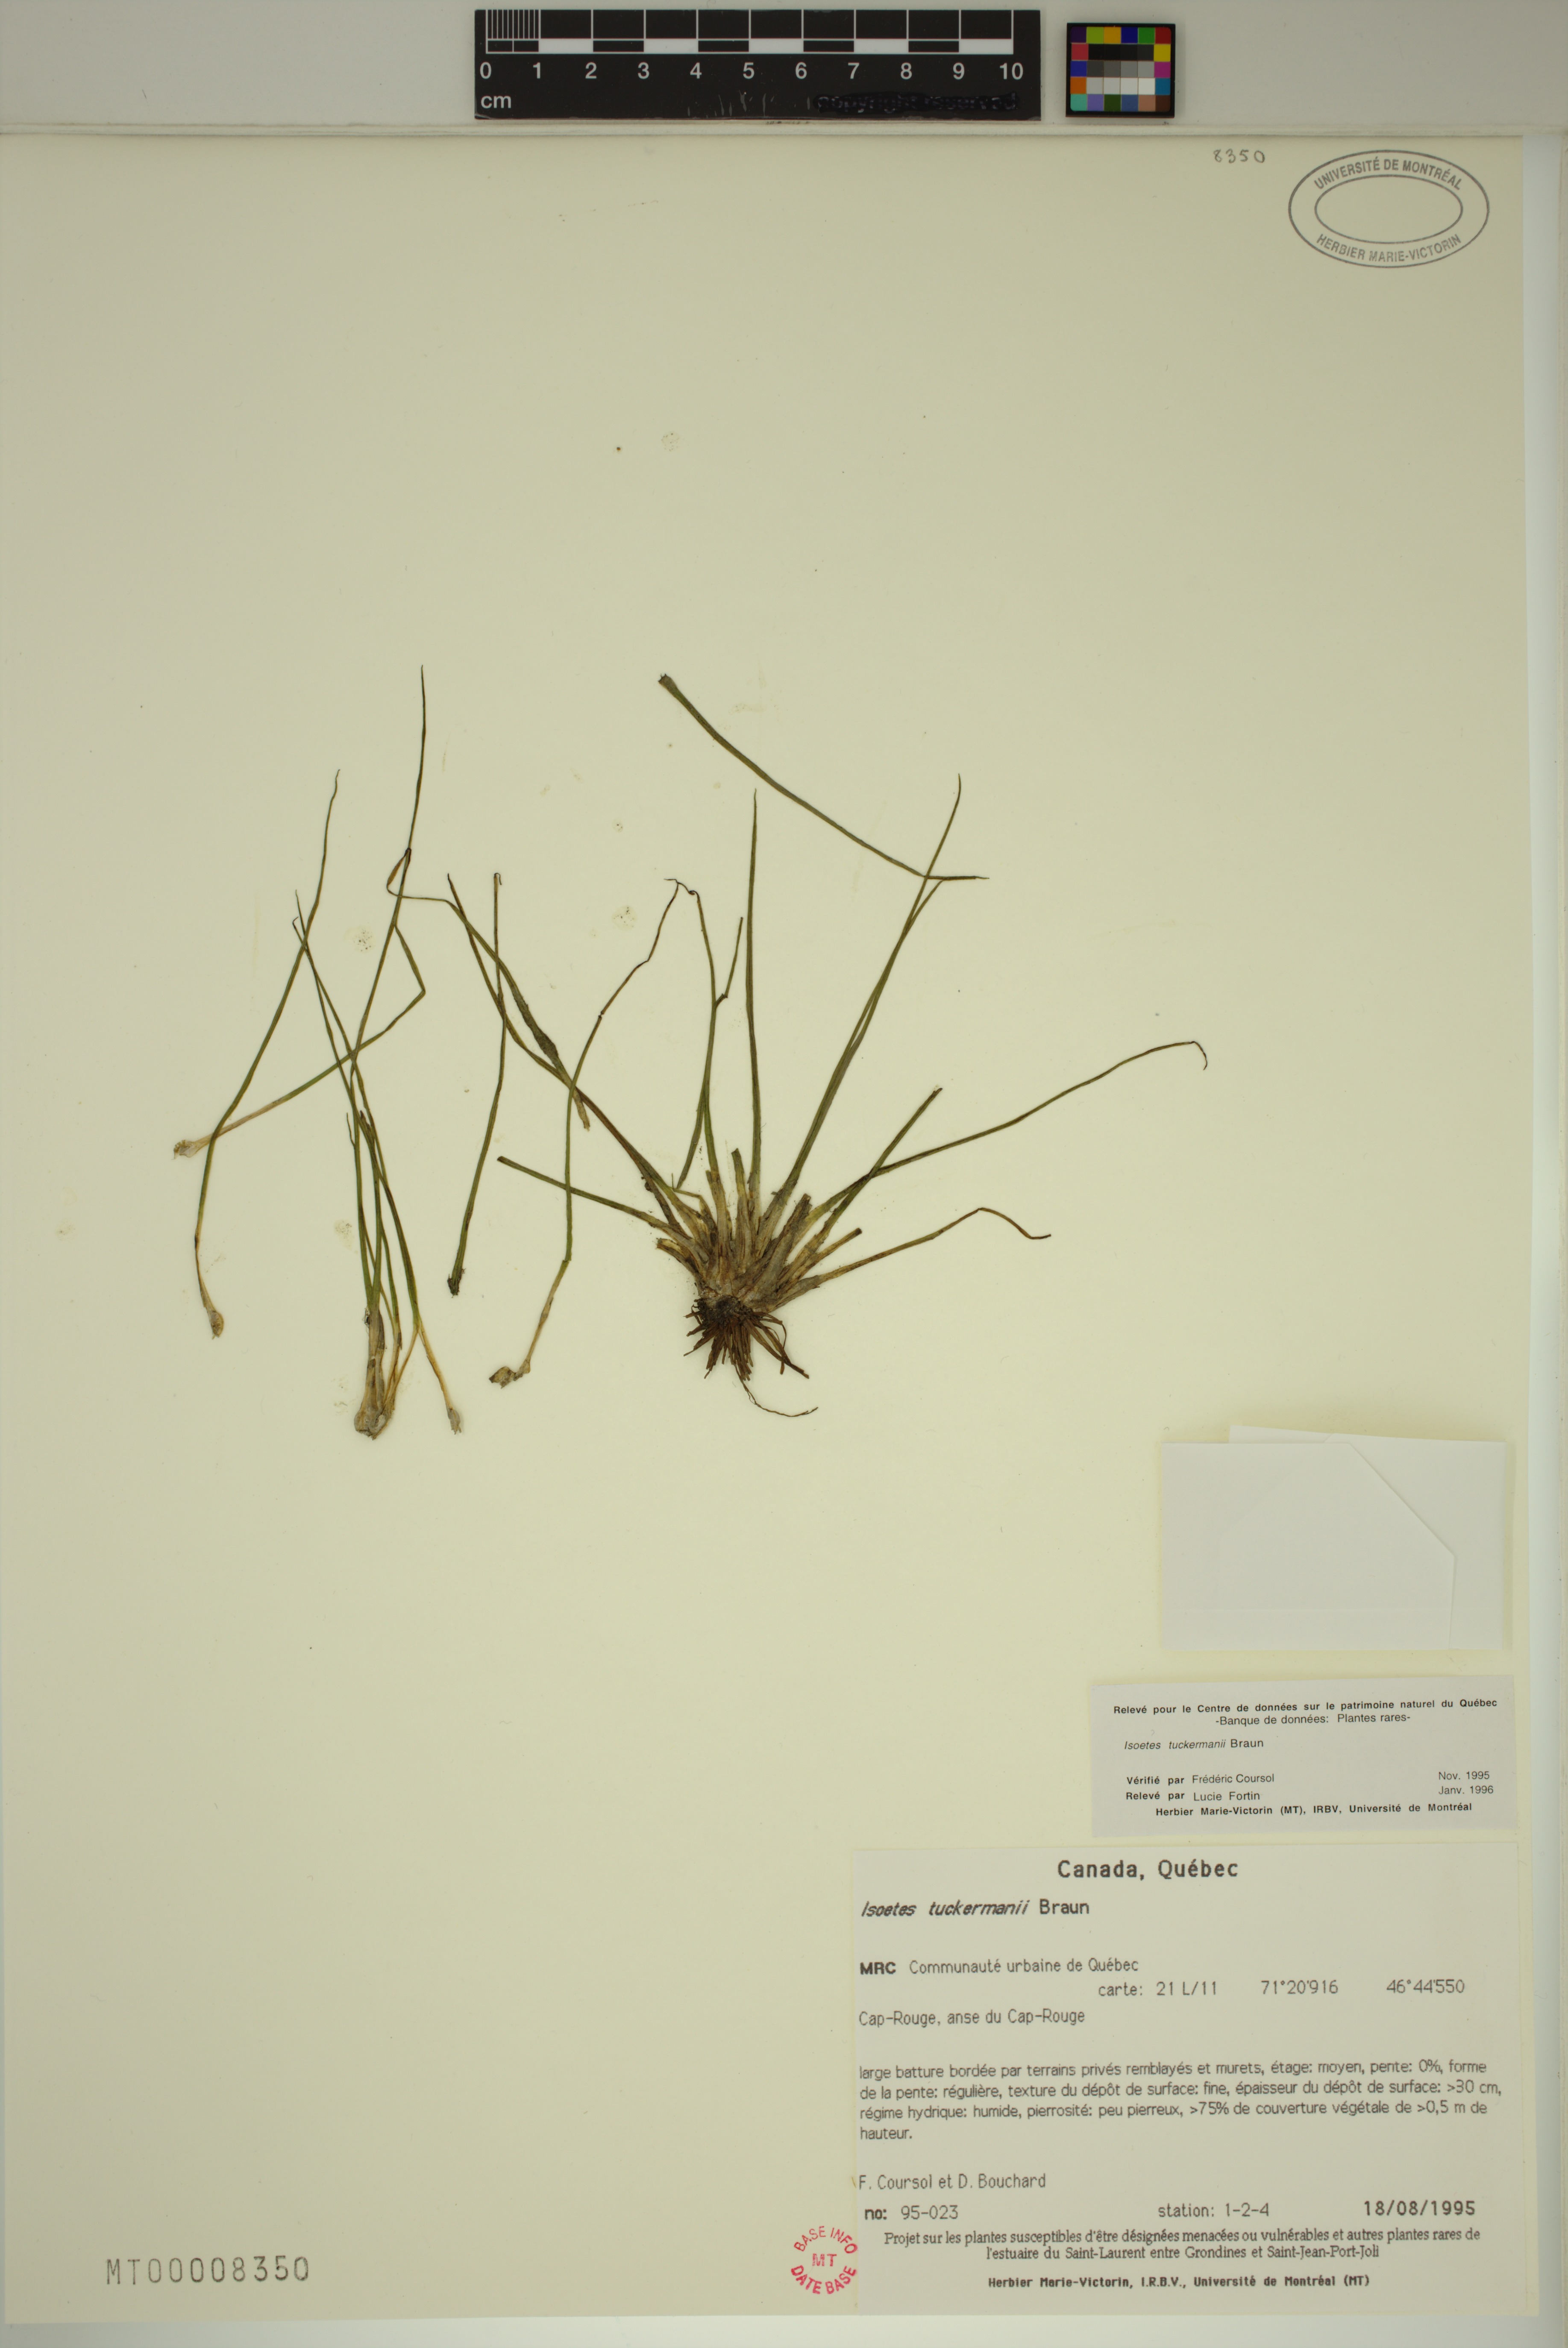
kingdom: Plantae
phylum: Tracheophyta
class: Lycopodiopsida
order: Isoetales
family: Isoetaceae
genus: Isoetes
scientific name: Isoetes laurentiana
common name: St. lawrence quillwort
